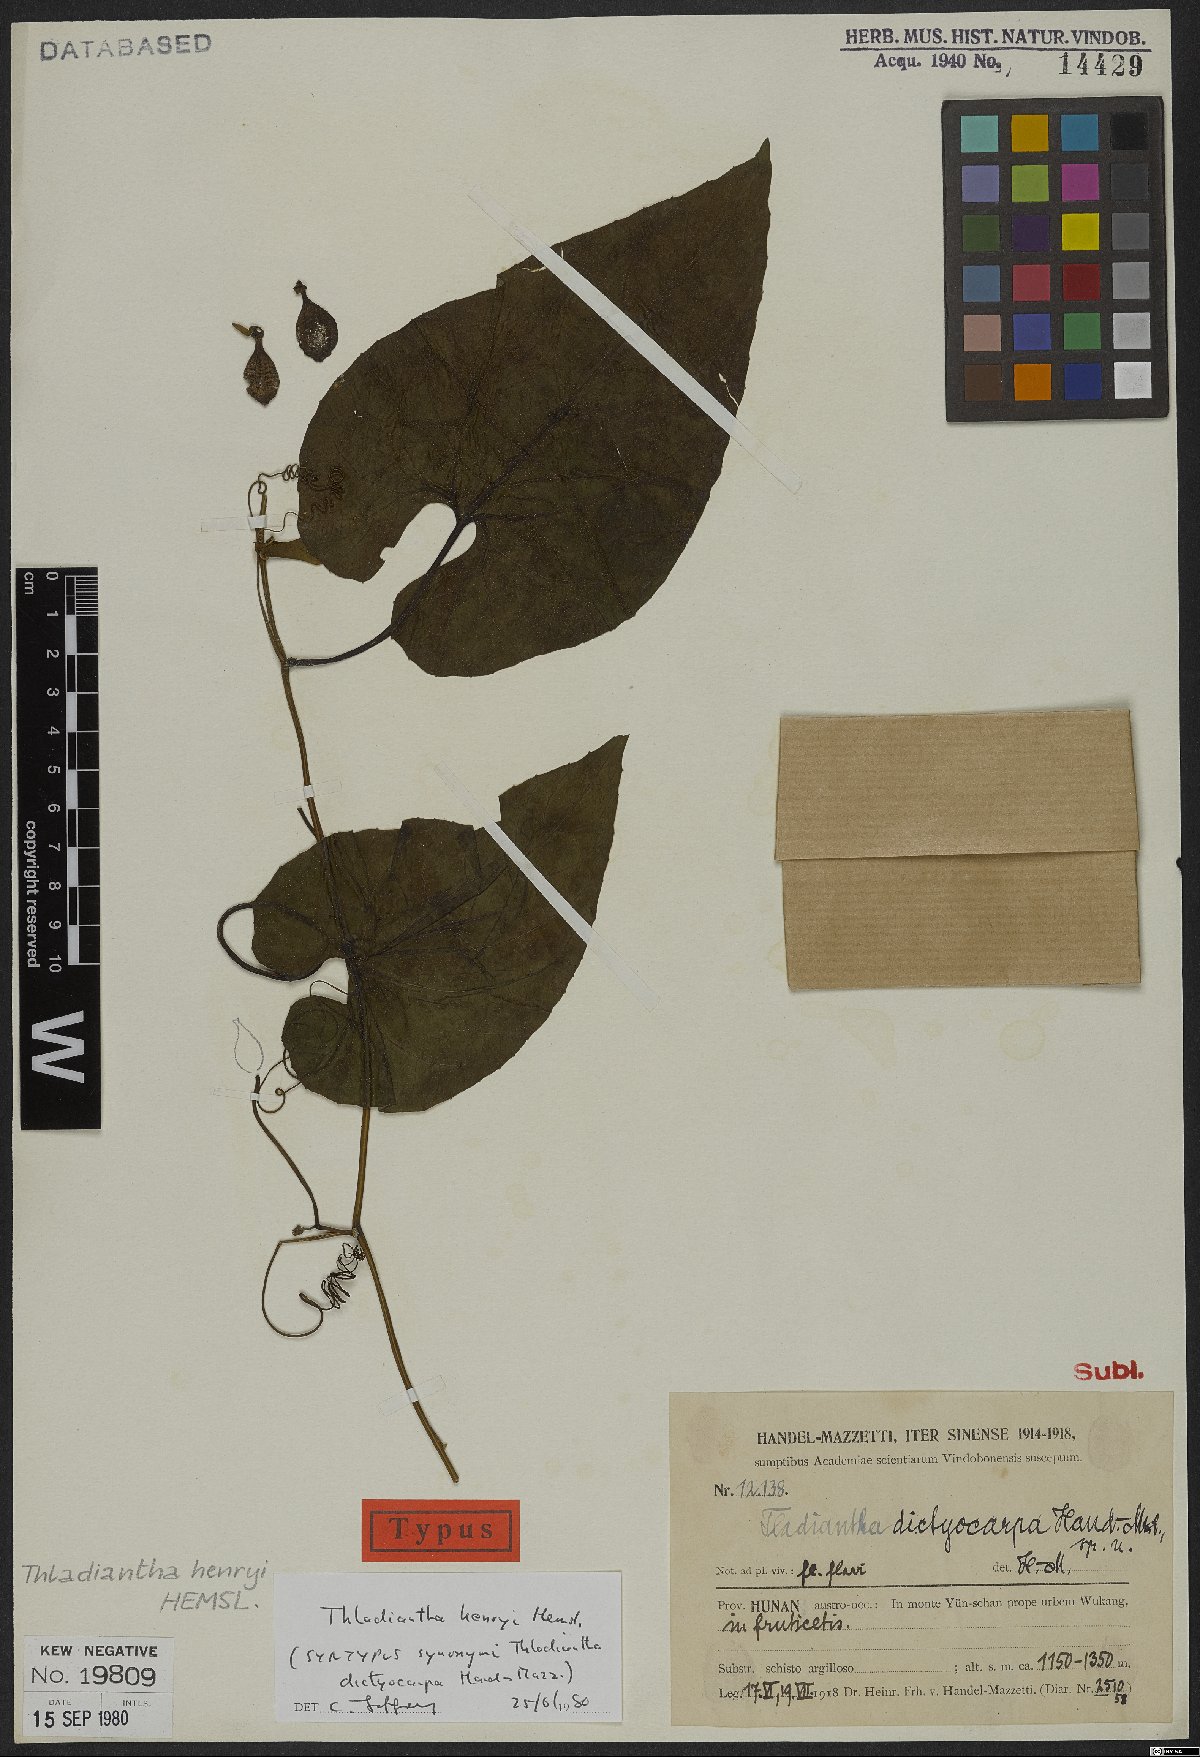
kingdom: Plantae
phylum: Tracheophyta
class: Magnoliopsida
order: Cucurbitales
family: Cucurbitaceae
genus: Thladiantha
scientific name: Thladiantha henryi
